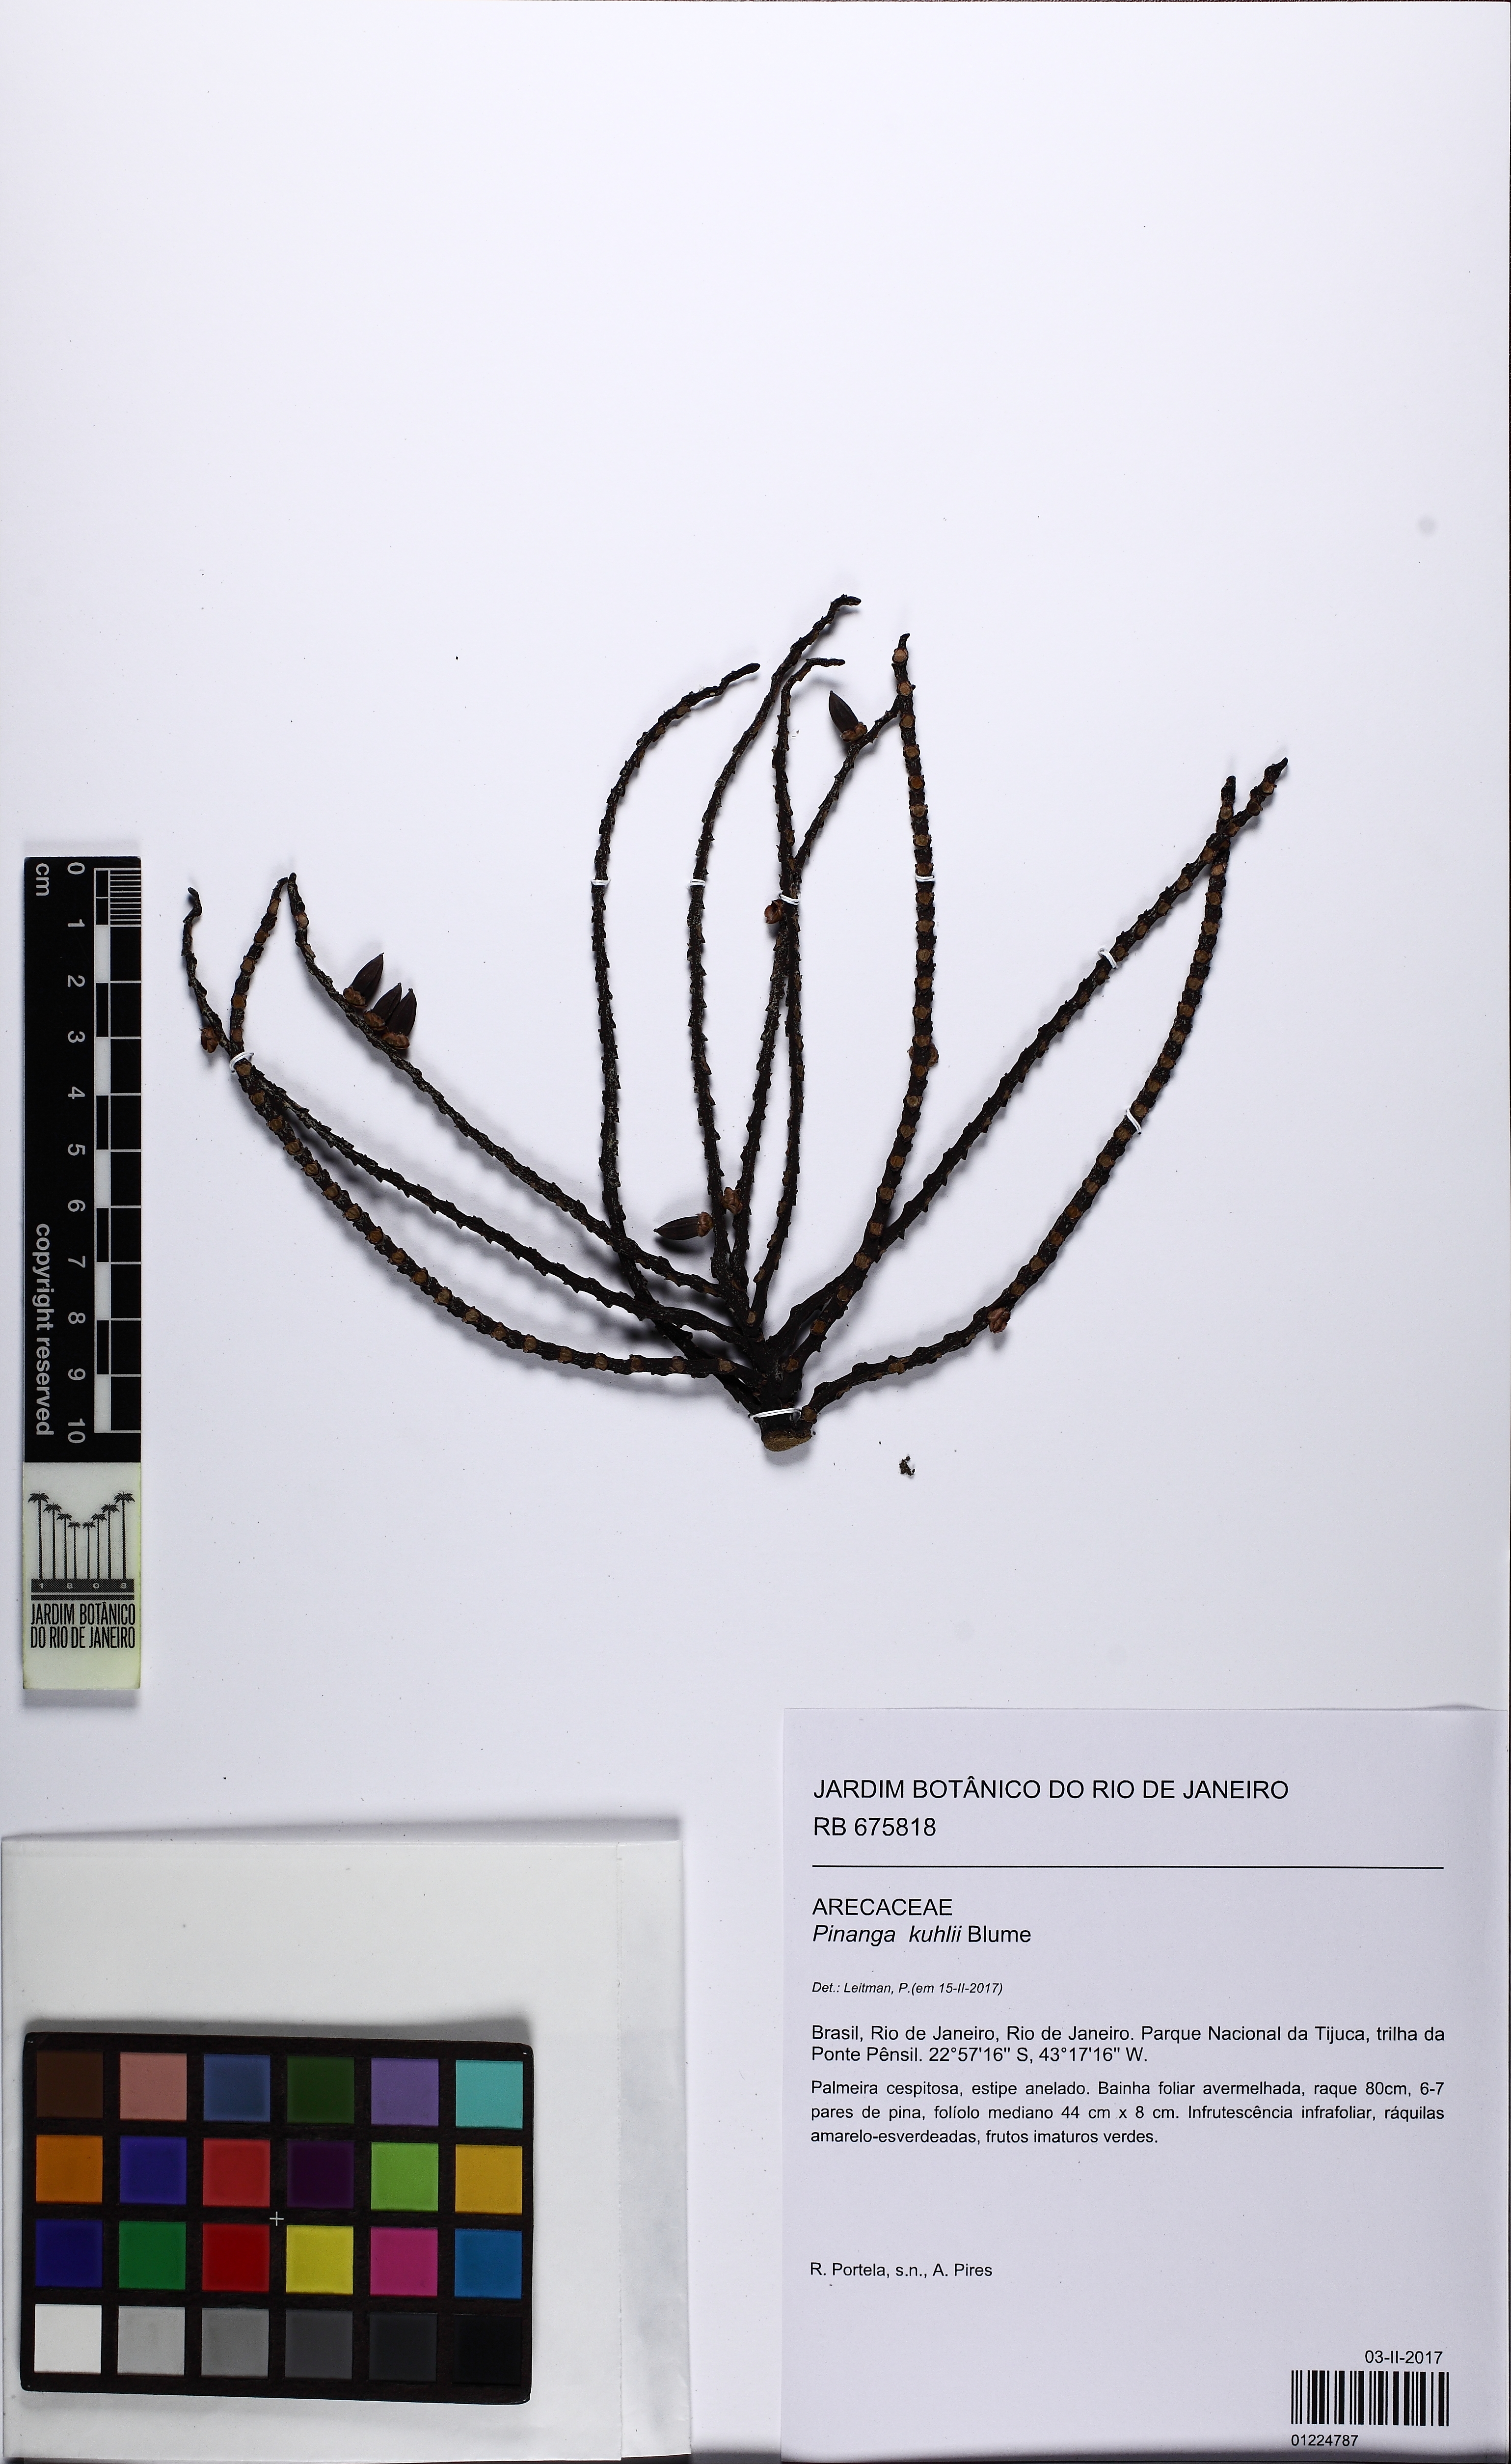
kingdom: Plantae
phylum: Tracheophyta
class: Liliopsida
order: Arecales
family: Arecaceae
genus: Pinanga
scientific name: Pinanga coronata
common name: Ivory cane palm
